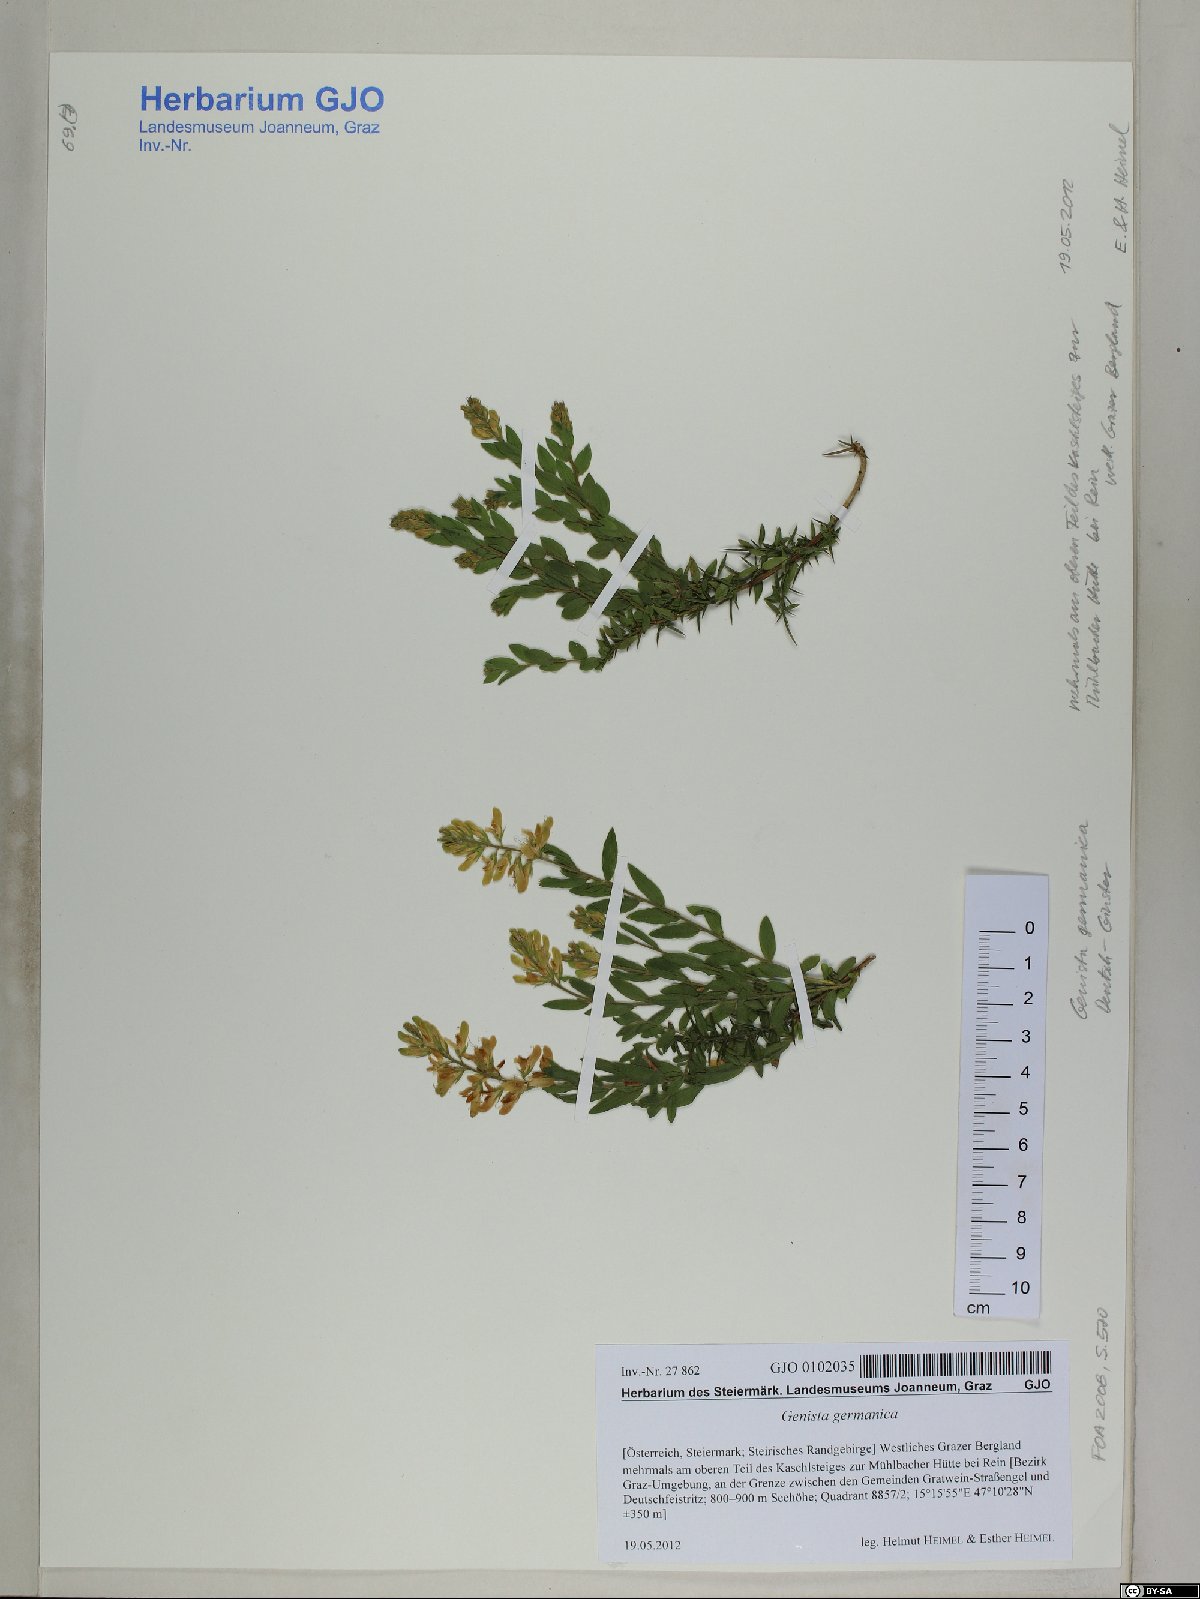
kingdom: Plantae
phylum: Tracheophyta
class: Magnoliopsida
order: Fabales
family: Fabaceae
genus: Genista
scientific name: Genista germanica
